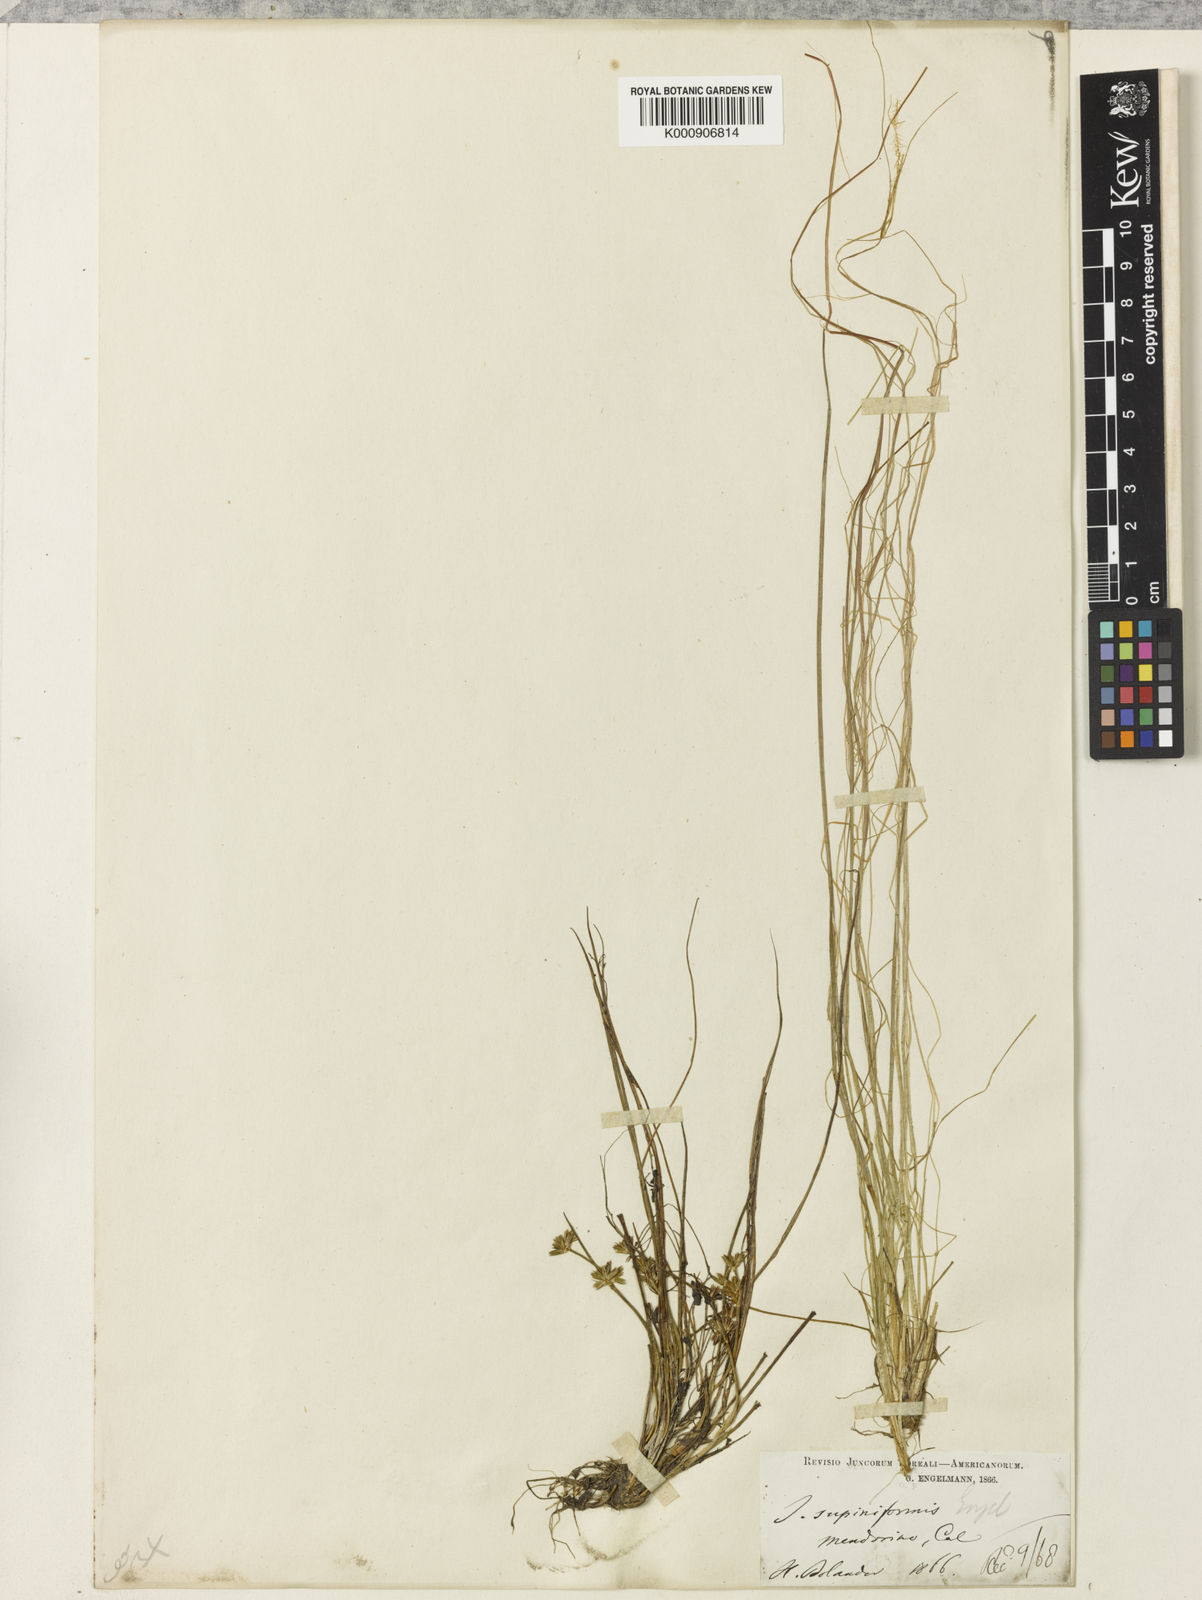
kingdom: Plantae
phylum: Tracheophyta
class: Liliopsida
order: Poales
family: Juncaceae
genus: Juncus
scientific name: Juncus supiniformis
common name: Hairy-leaved rush
